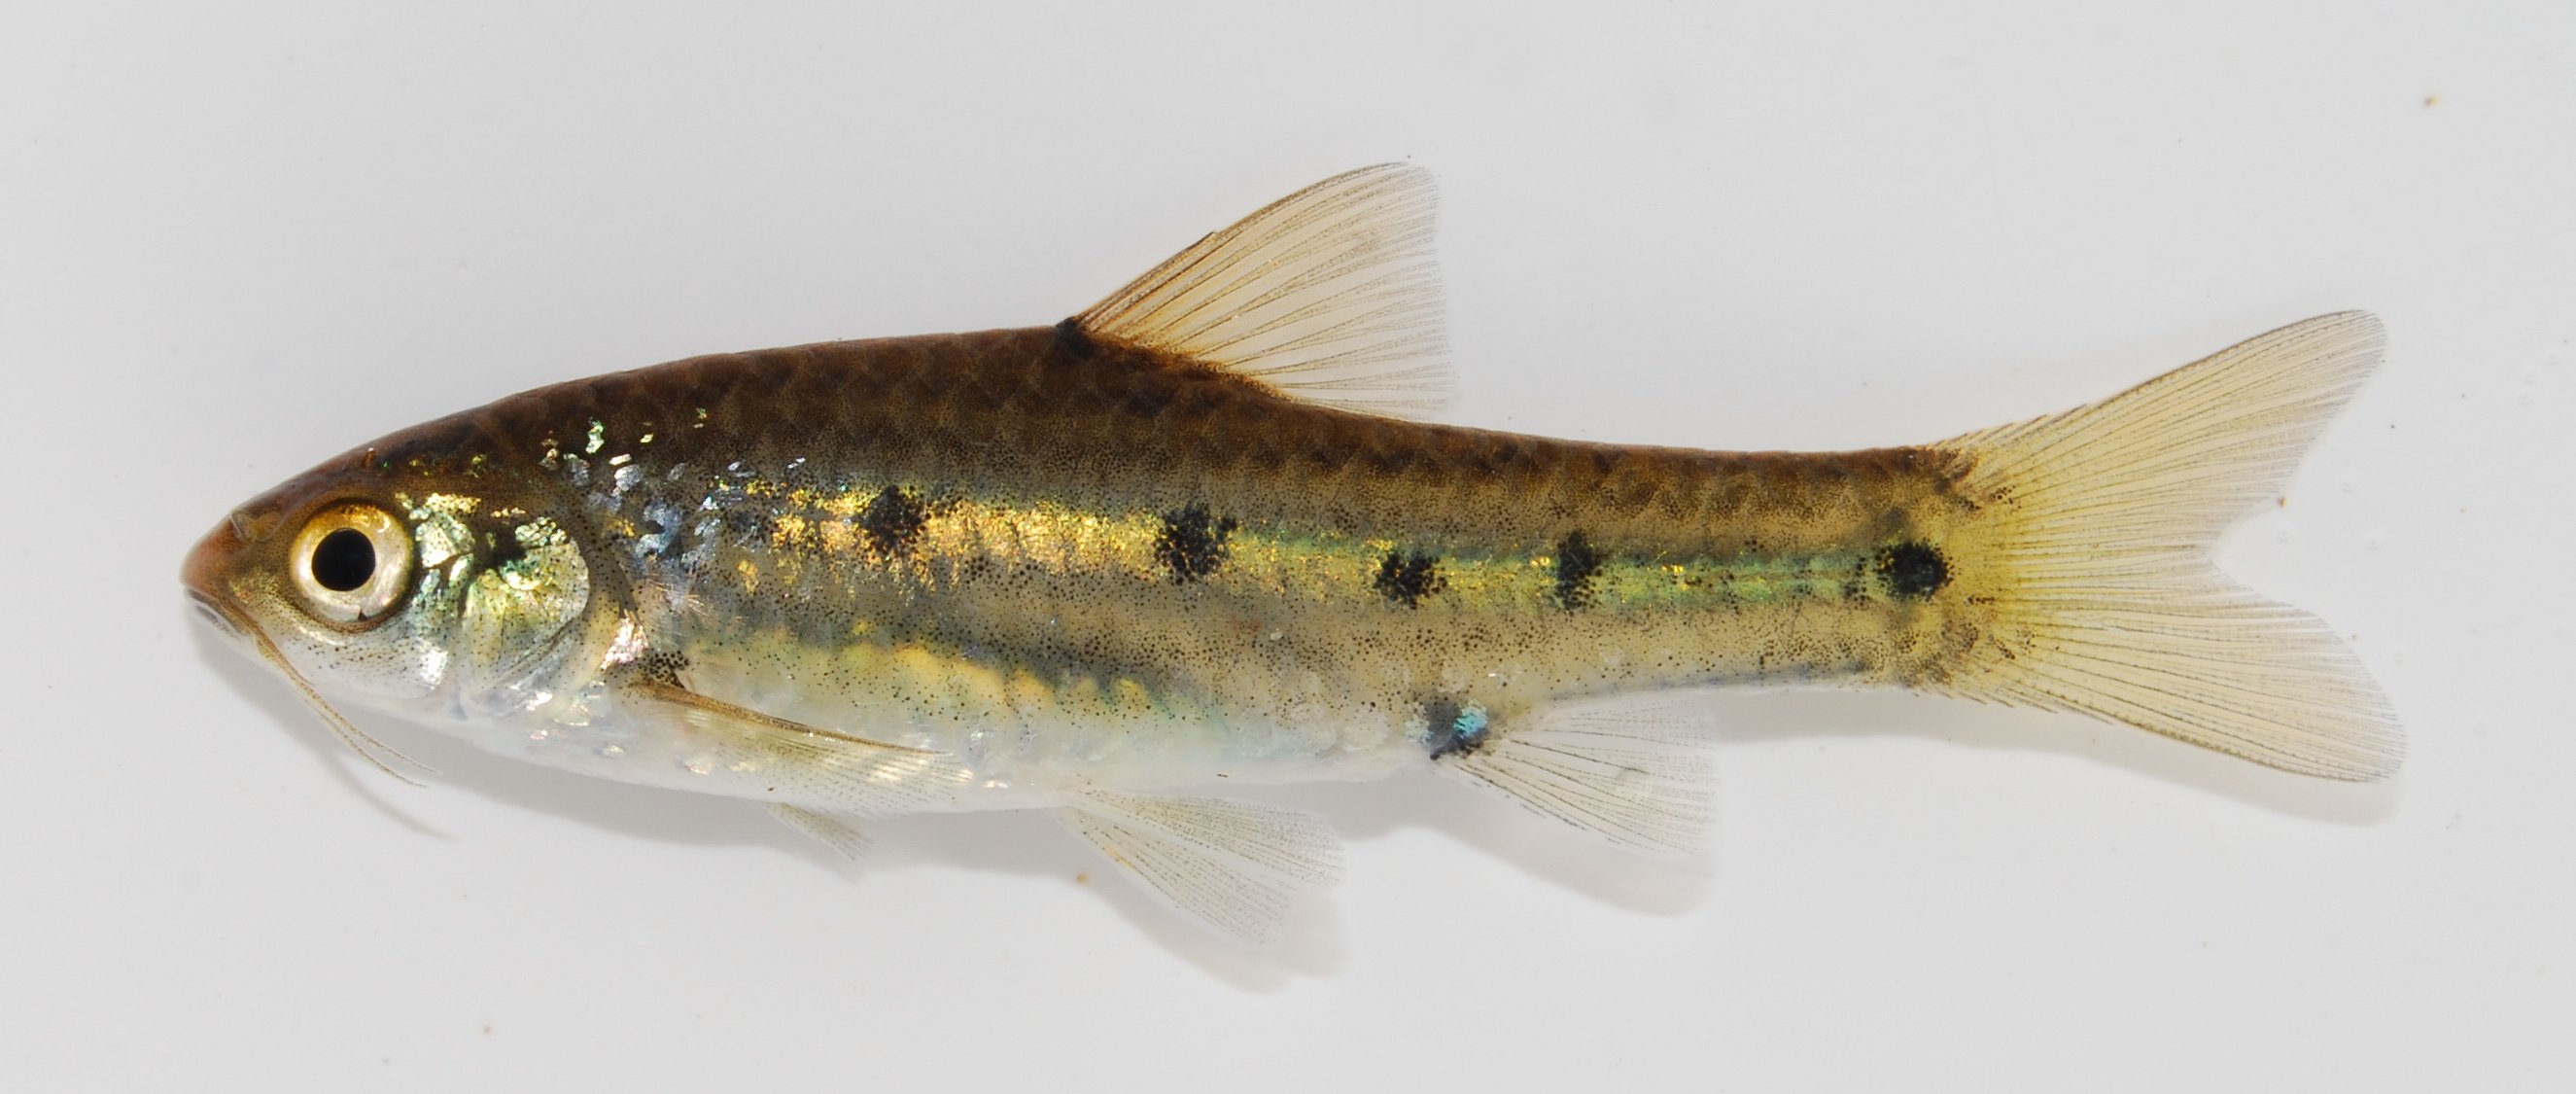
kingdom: Animalia
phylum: Chordata
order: Cypriniformes
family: Cyprinidae
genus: Enteromius
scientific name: Enteromius neefi
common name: Sidespot barb
